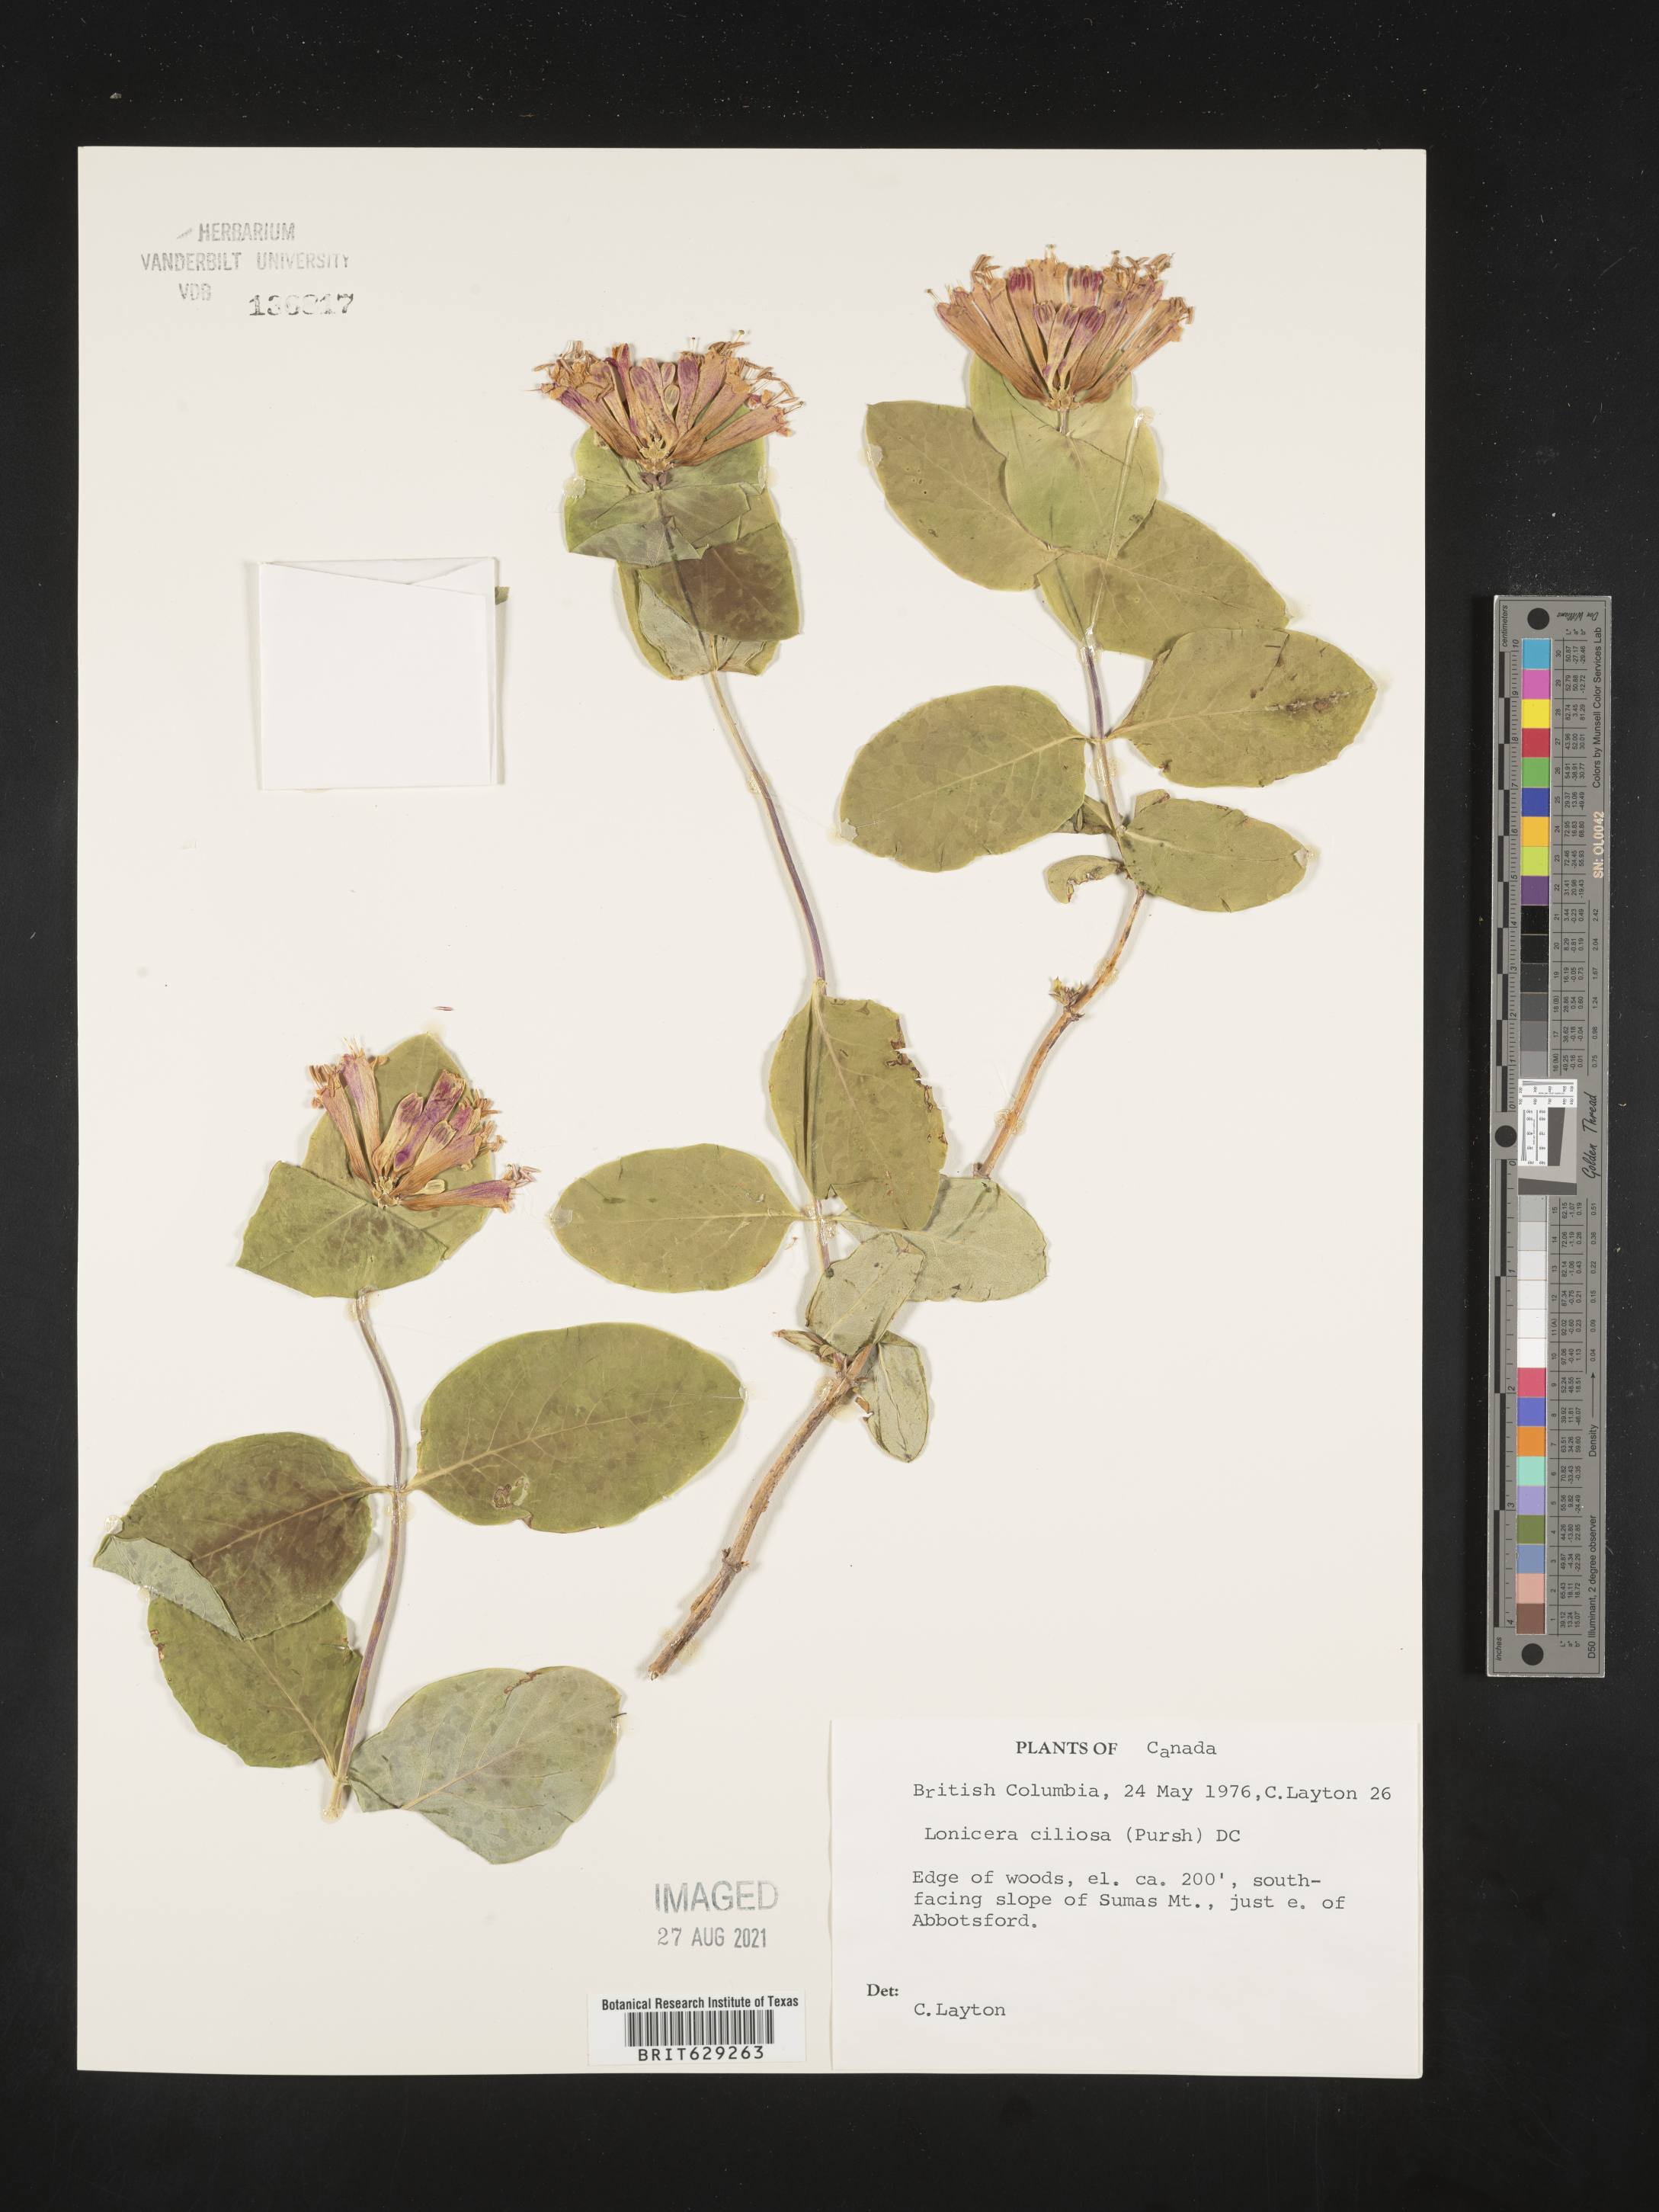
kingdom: Plantae
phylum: Tracheophyta
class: Magnoliopsida
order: Dipsacales
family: Caprifoliaceae
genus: Lonicera
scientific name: Lonicera ciliosa
